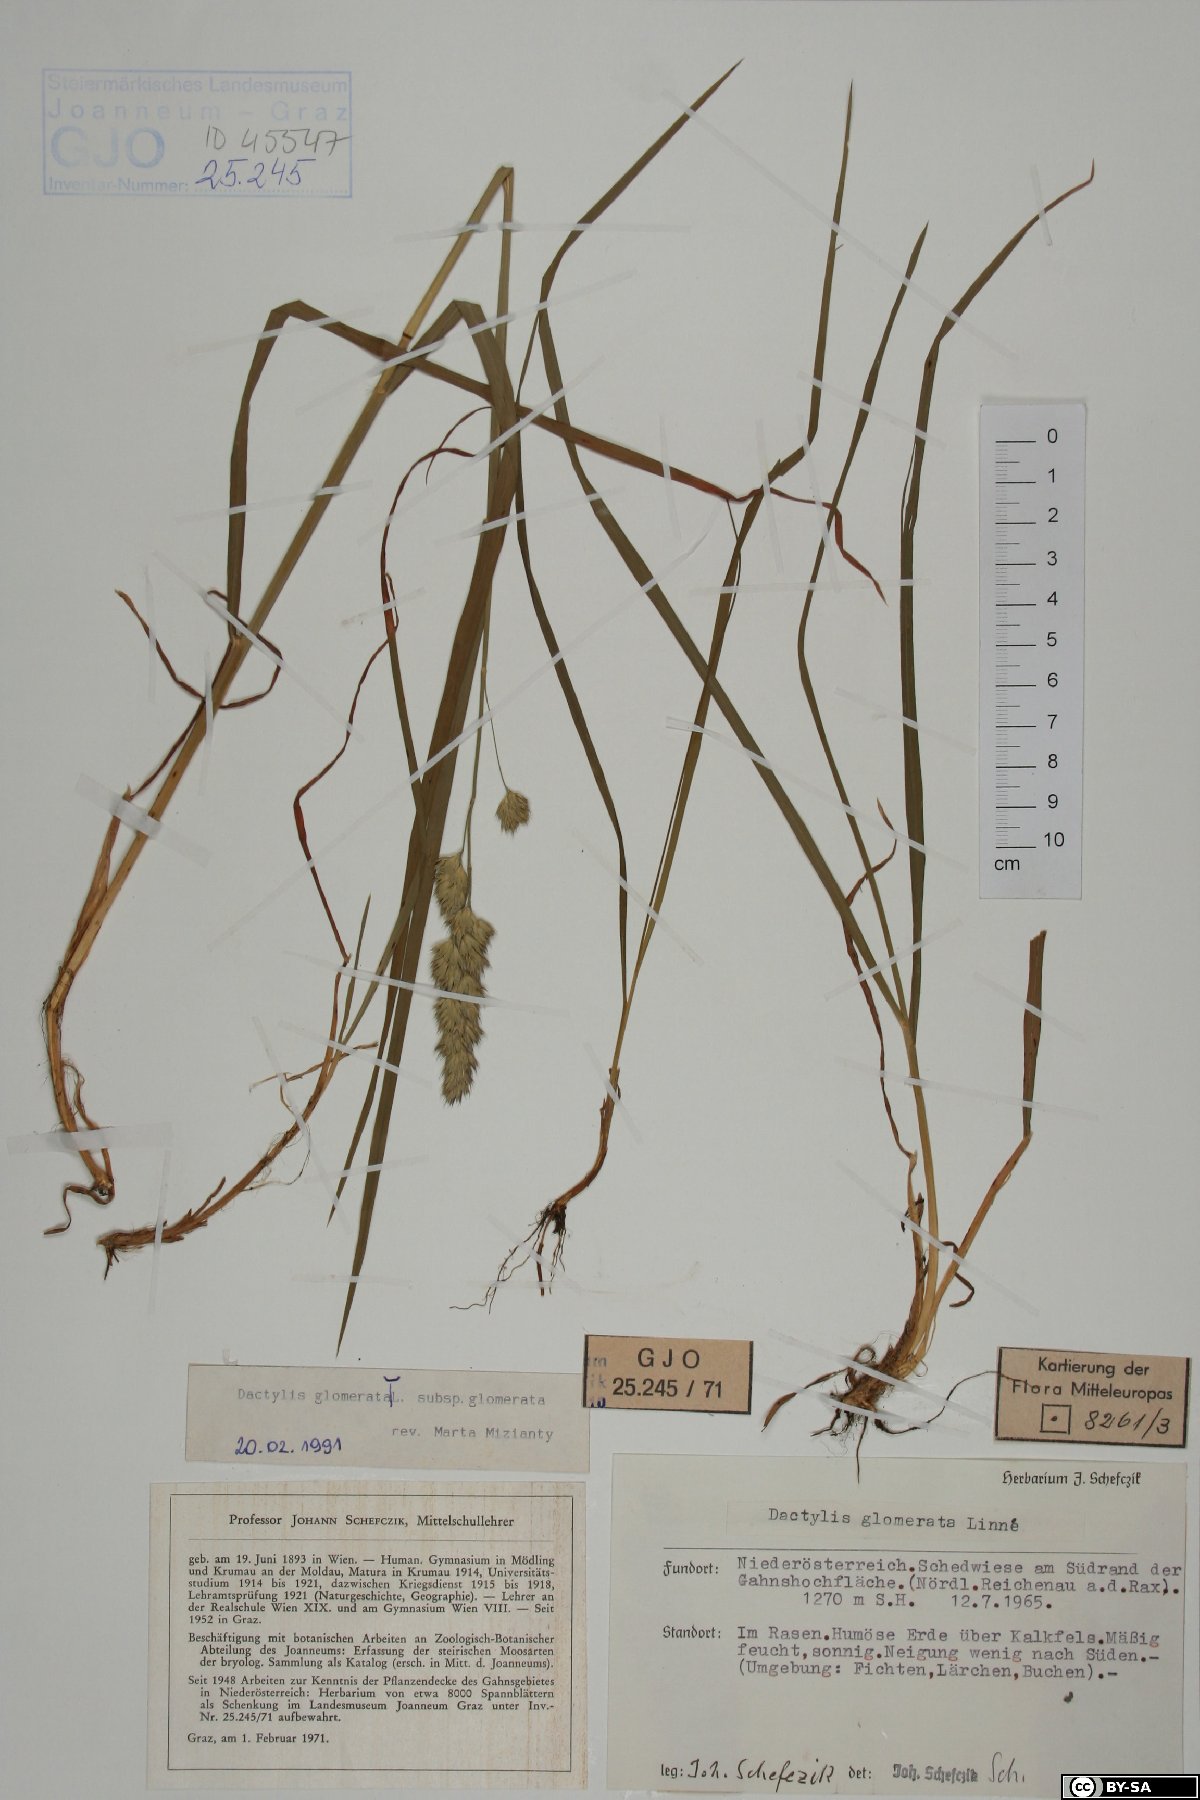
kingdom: Plantae
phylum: Tracheophyta
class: Liliopsida
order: Poales
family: Poaceae
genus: Dactylis
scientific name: Dactylis glomerata
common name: Orchardgrass
